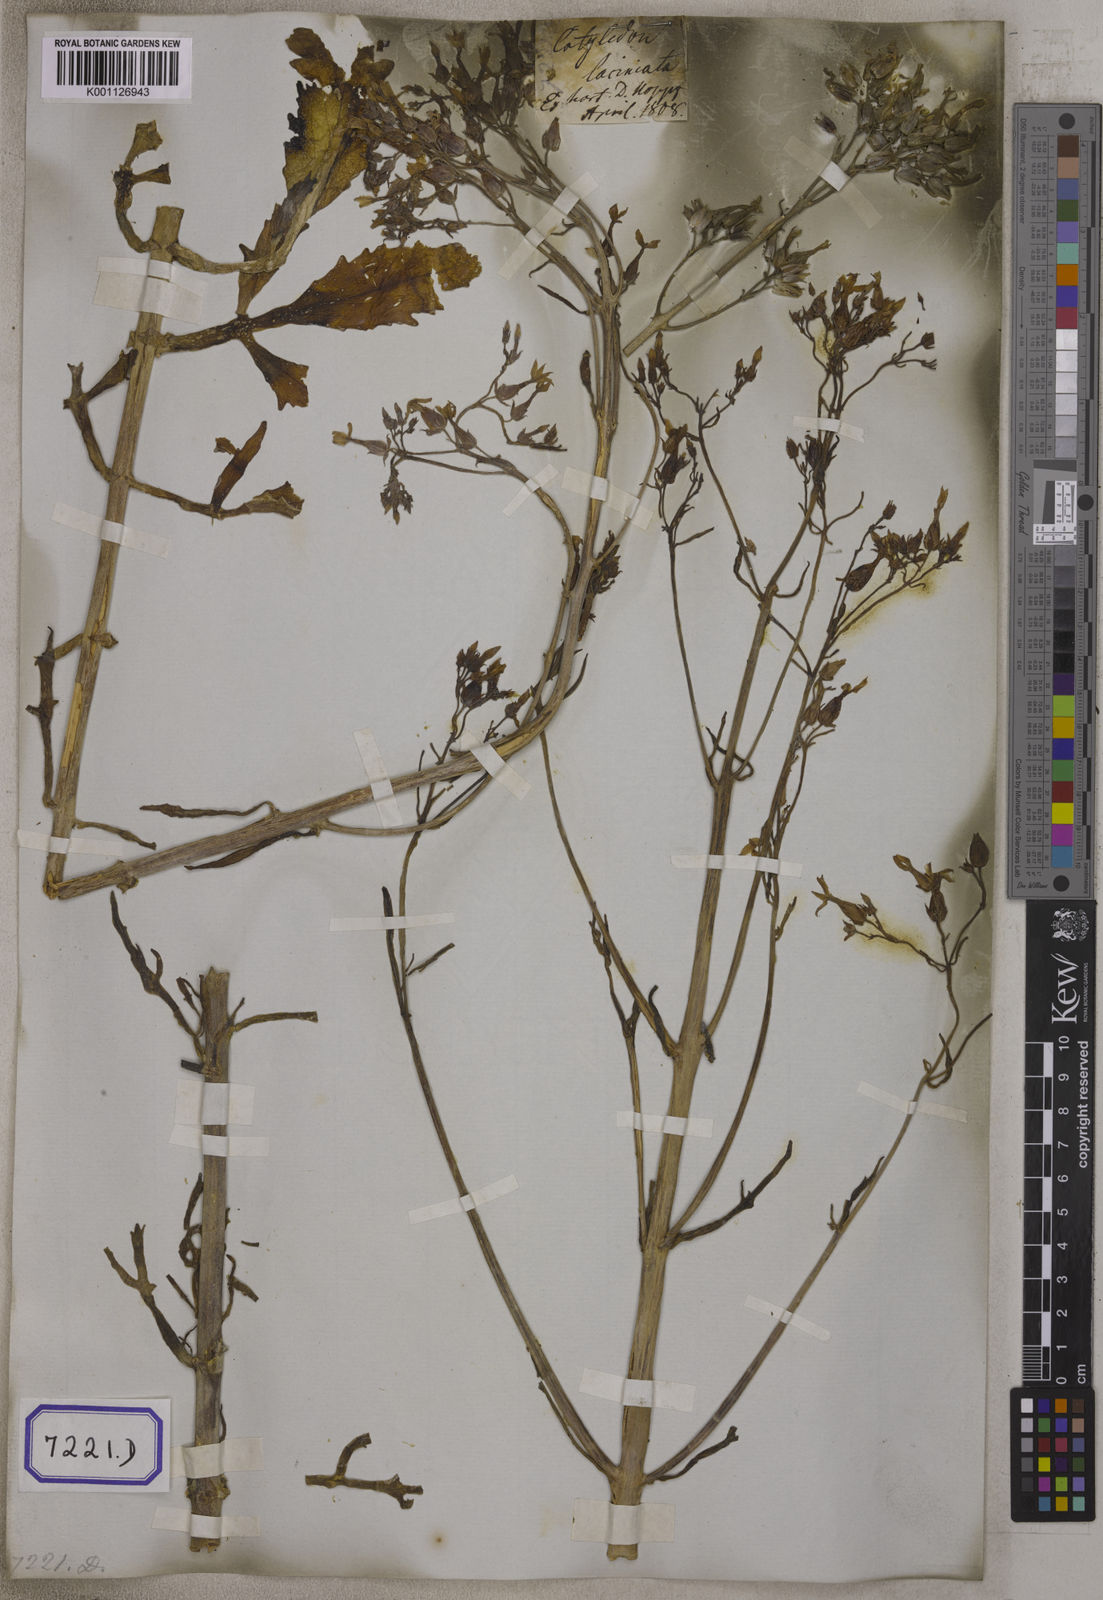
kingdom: Plantae
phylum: Tracheophyta
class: Magnoliopsida
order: Saxifragales
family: Crassulaceae
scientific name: Crassulaceae
